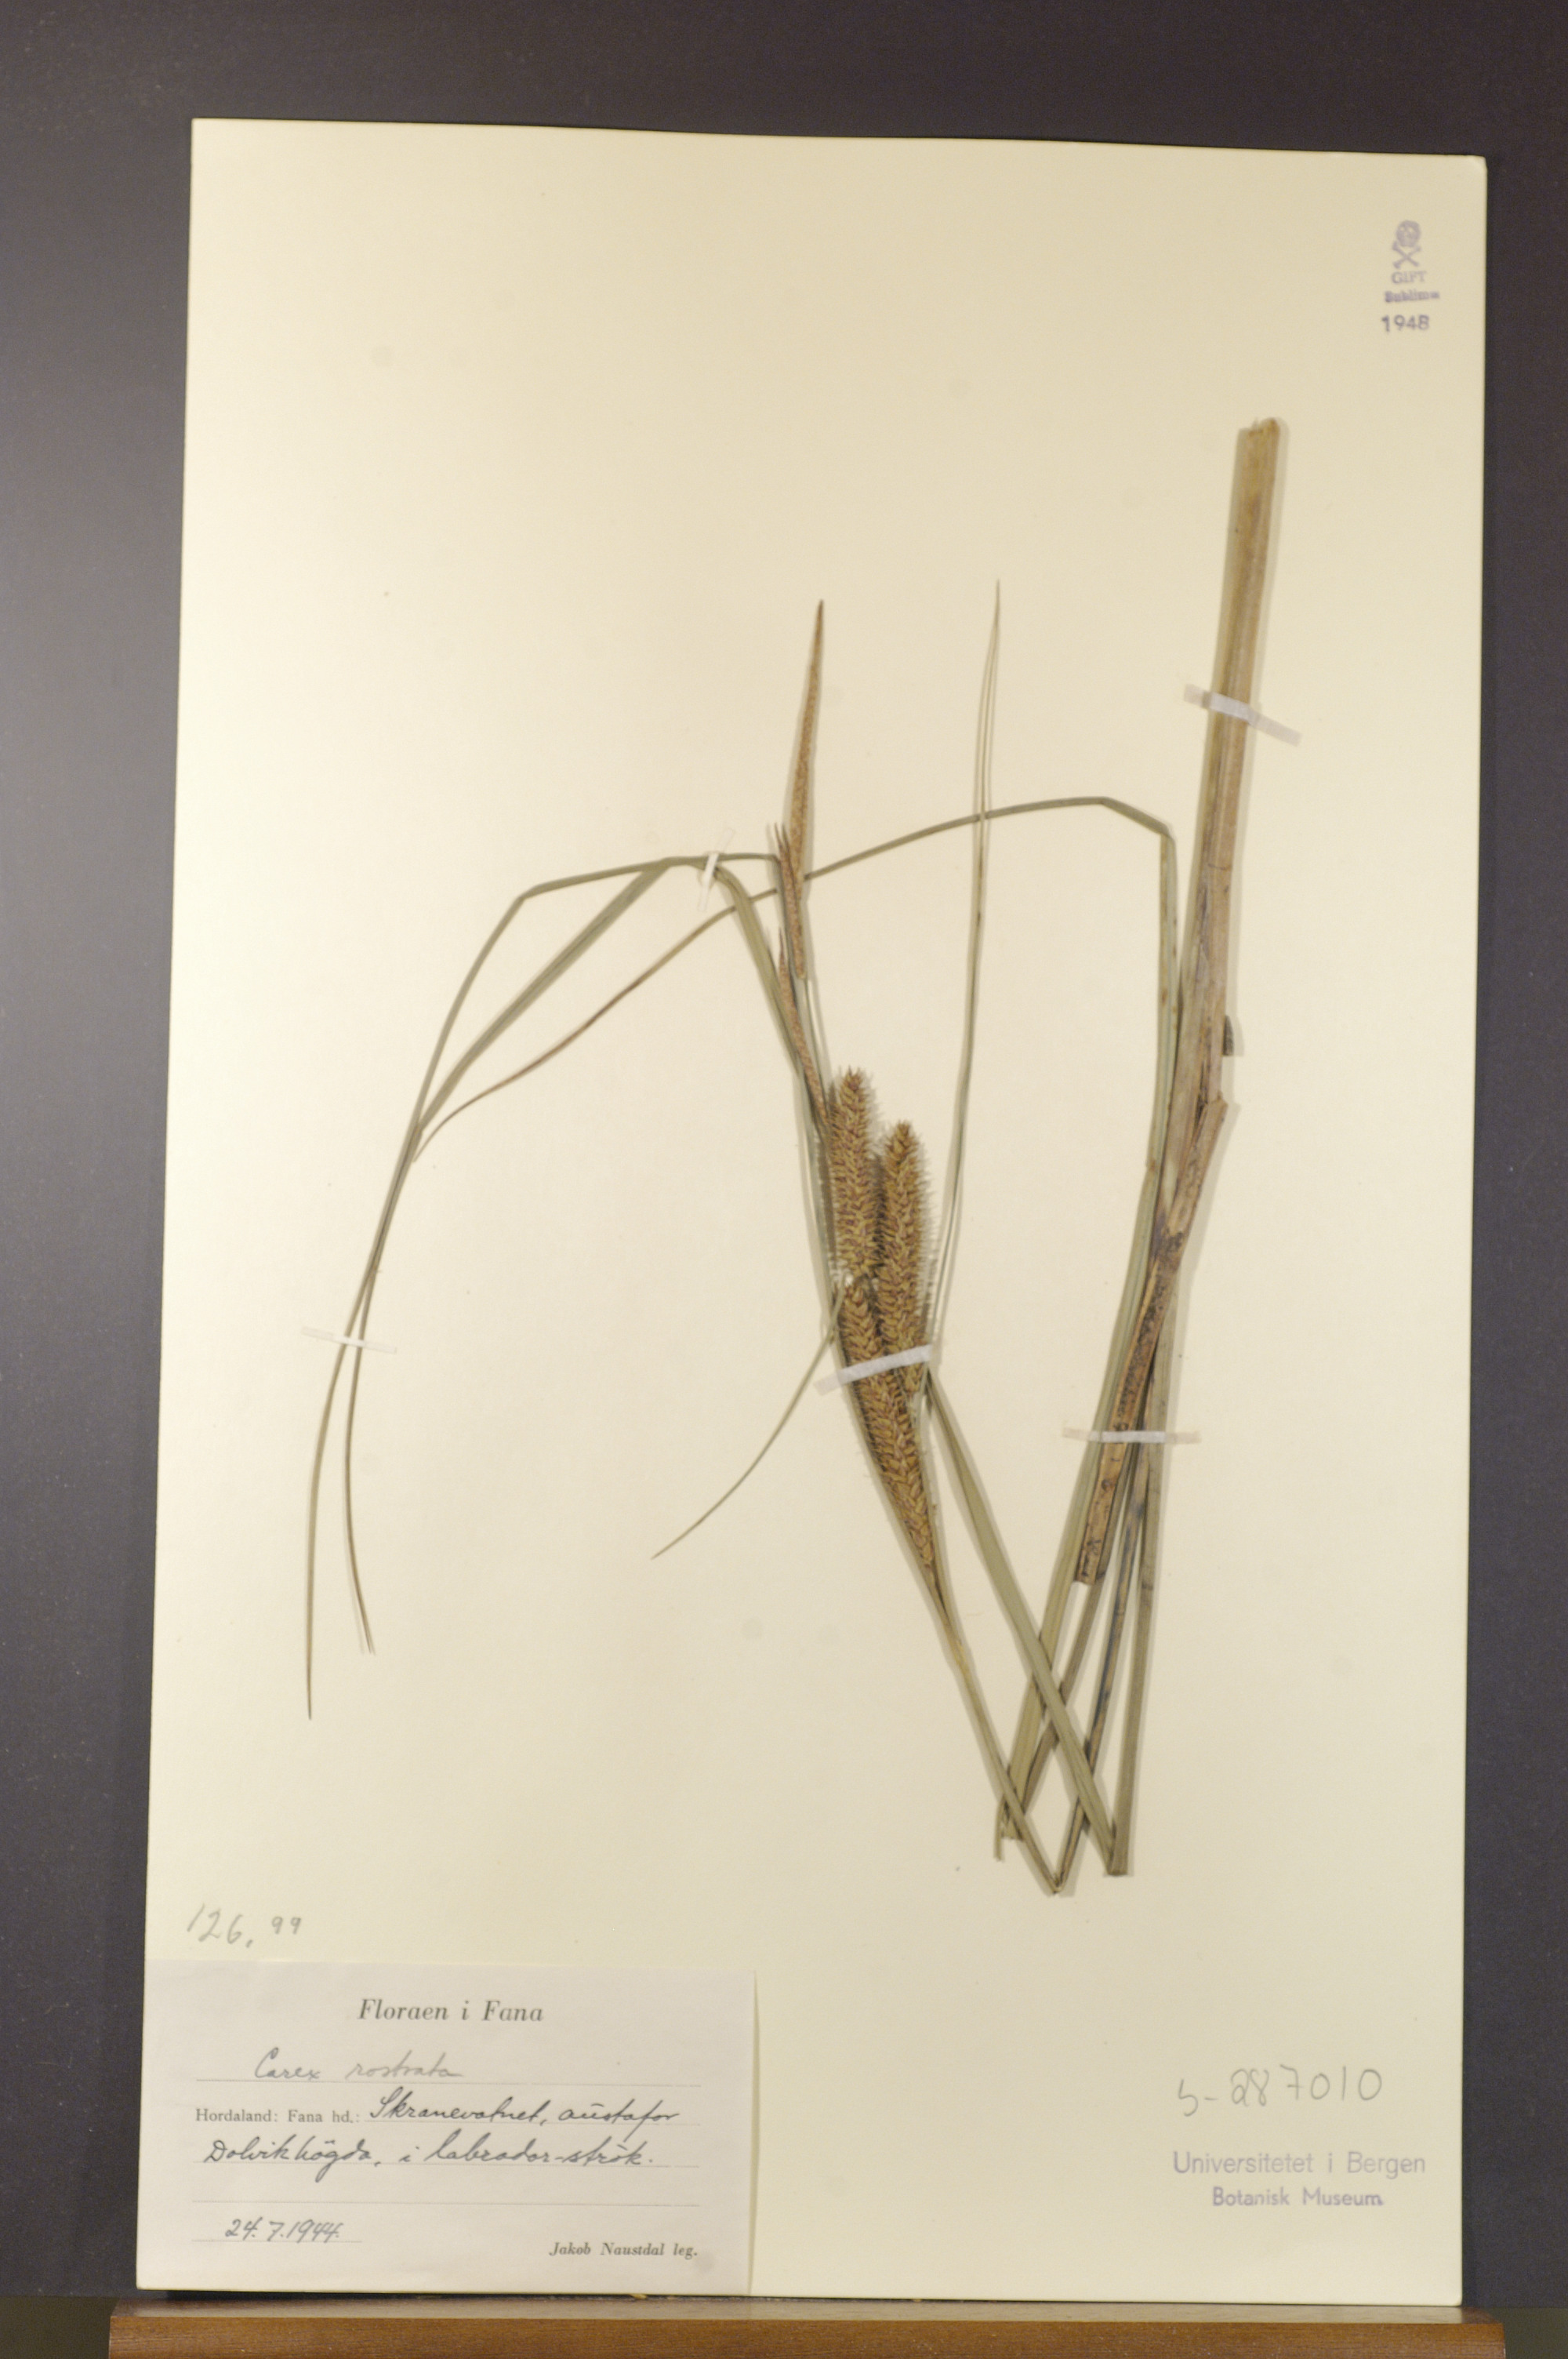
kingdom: Plantae
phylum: Tracheophyta
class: Liliopsida
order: Poales
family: Cyperaceae
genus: Carex
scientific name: Carex rostrata
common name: Bottle sedge
